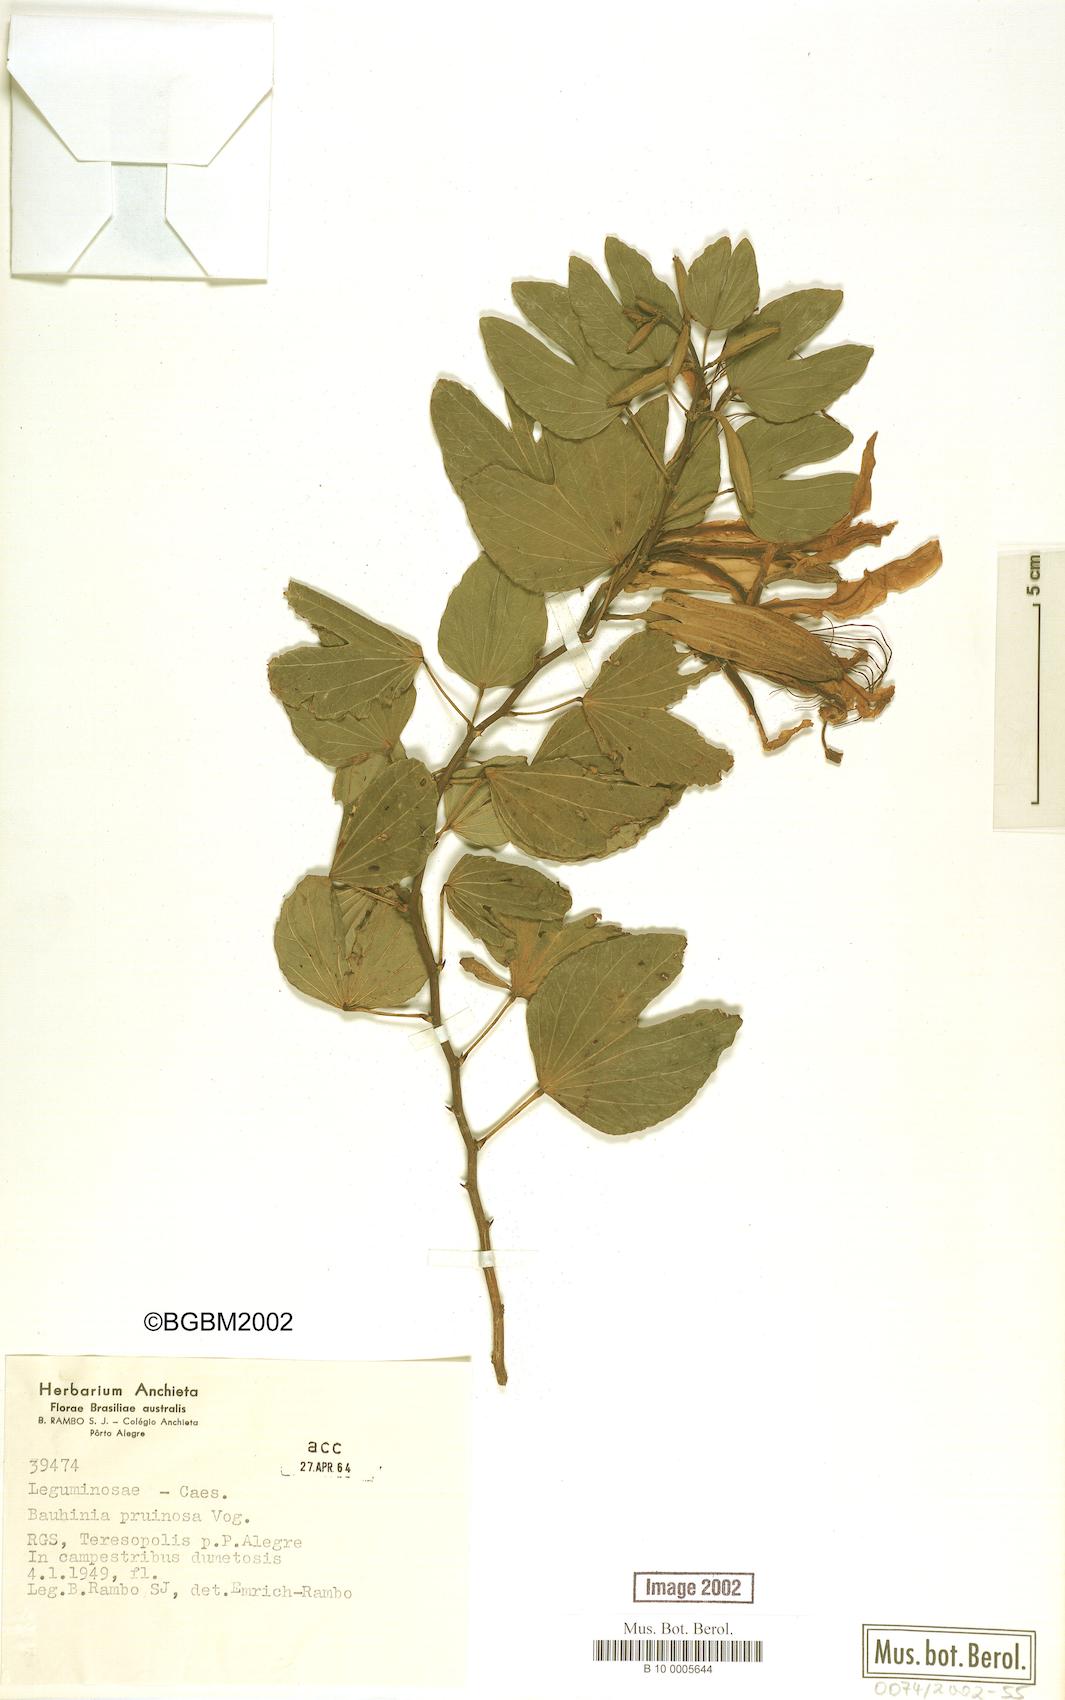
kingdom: Plantae
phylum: Tracheophyta
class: Magnoliopsida
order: Fabales
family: Fabaceae
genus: Bauhinia
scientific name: Bauhinia forficata
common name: Orchid tree
